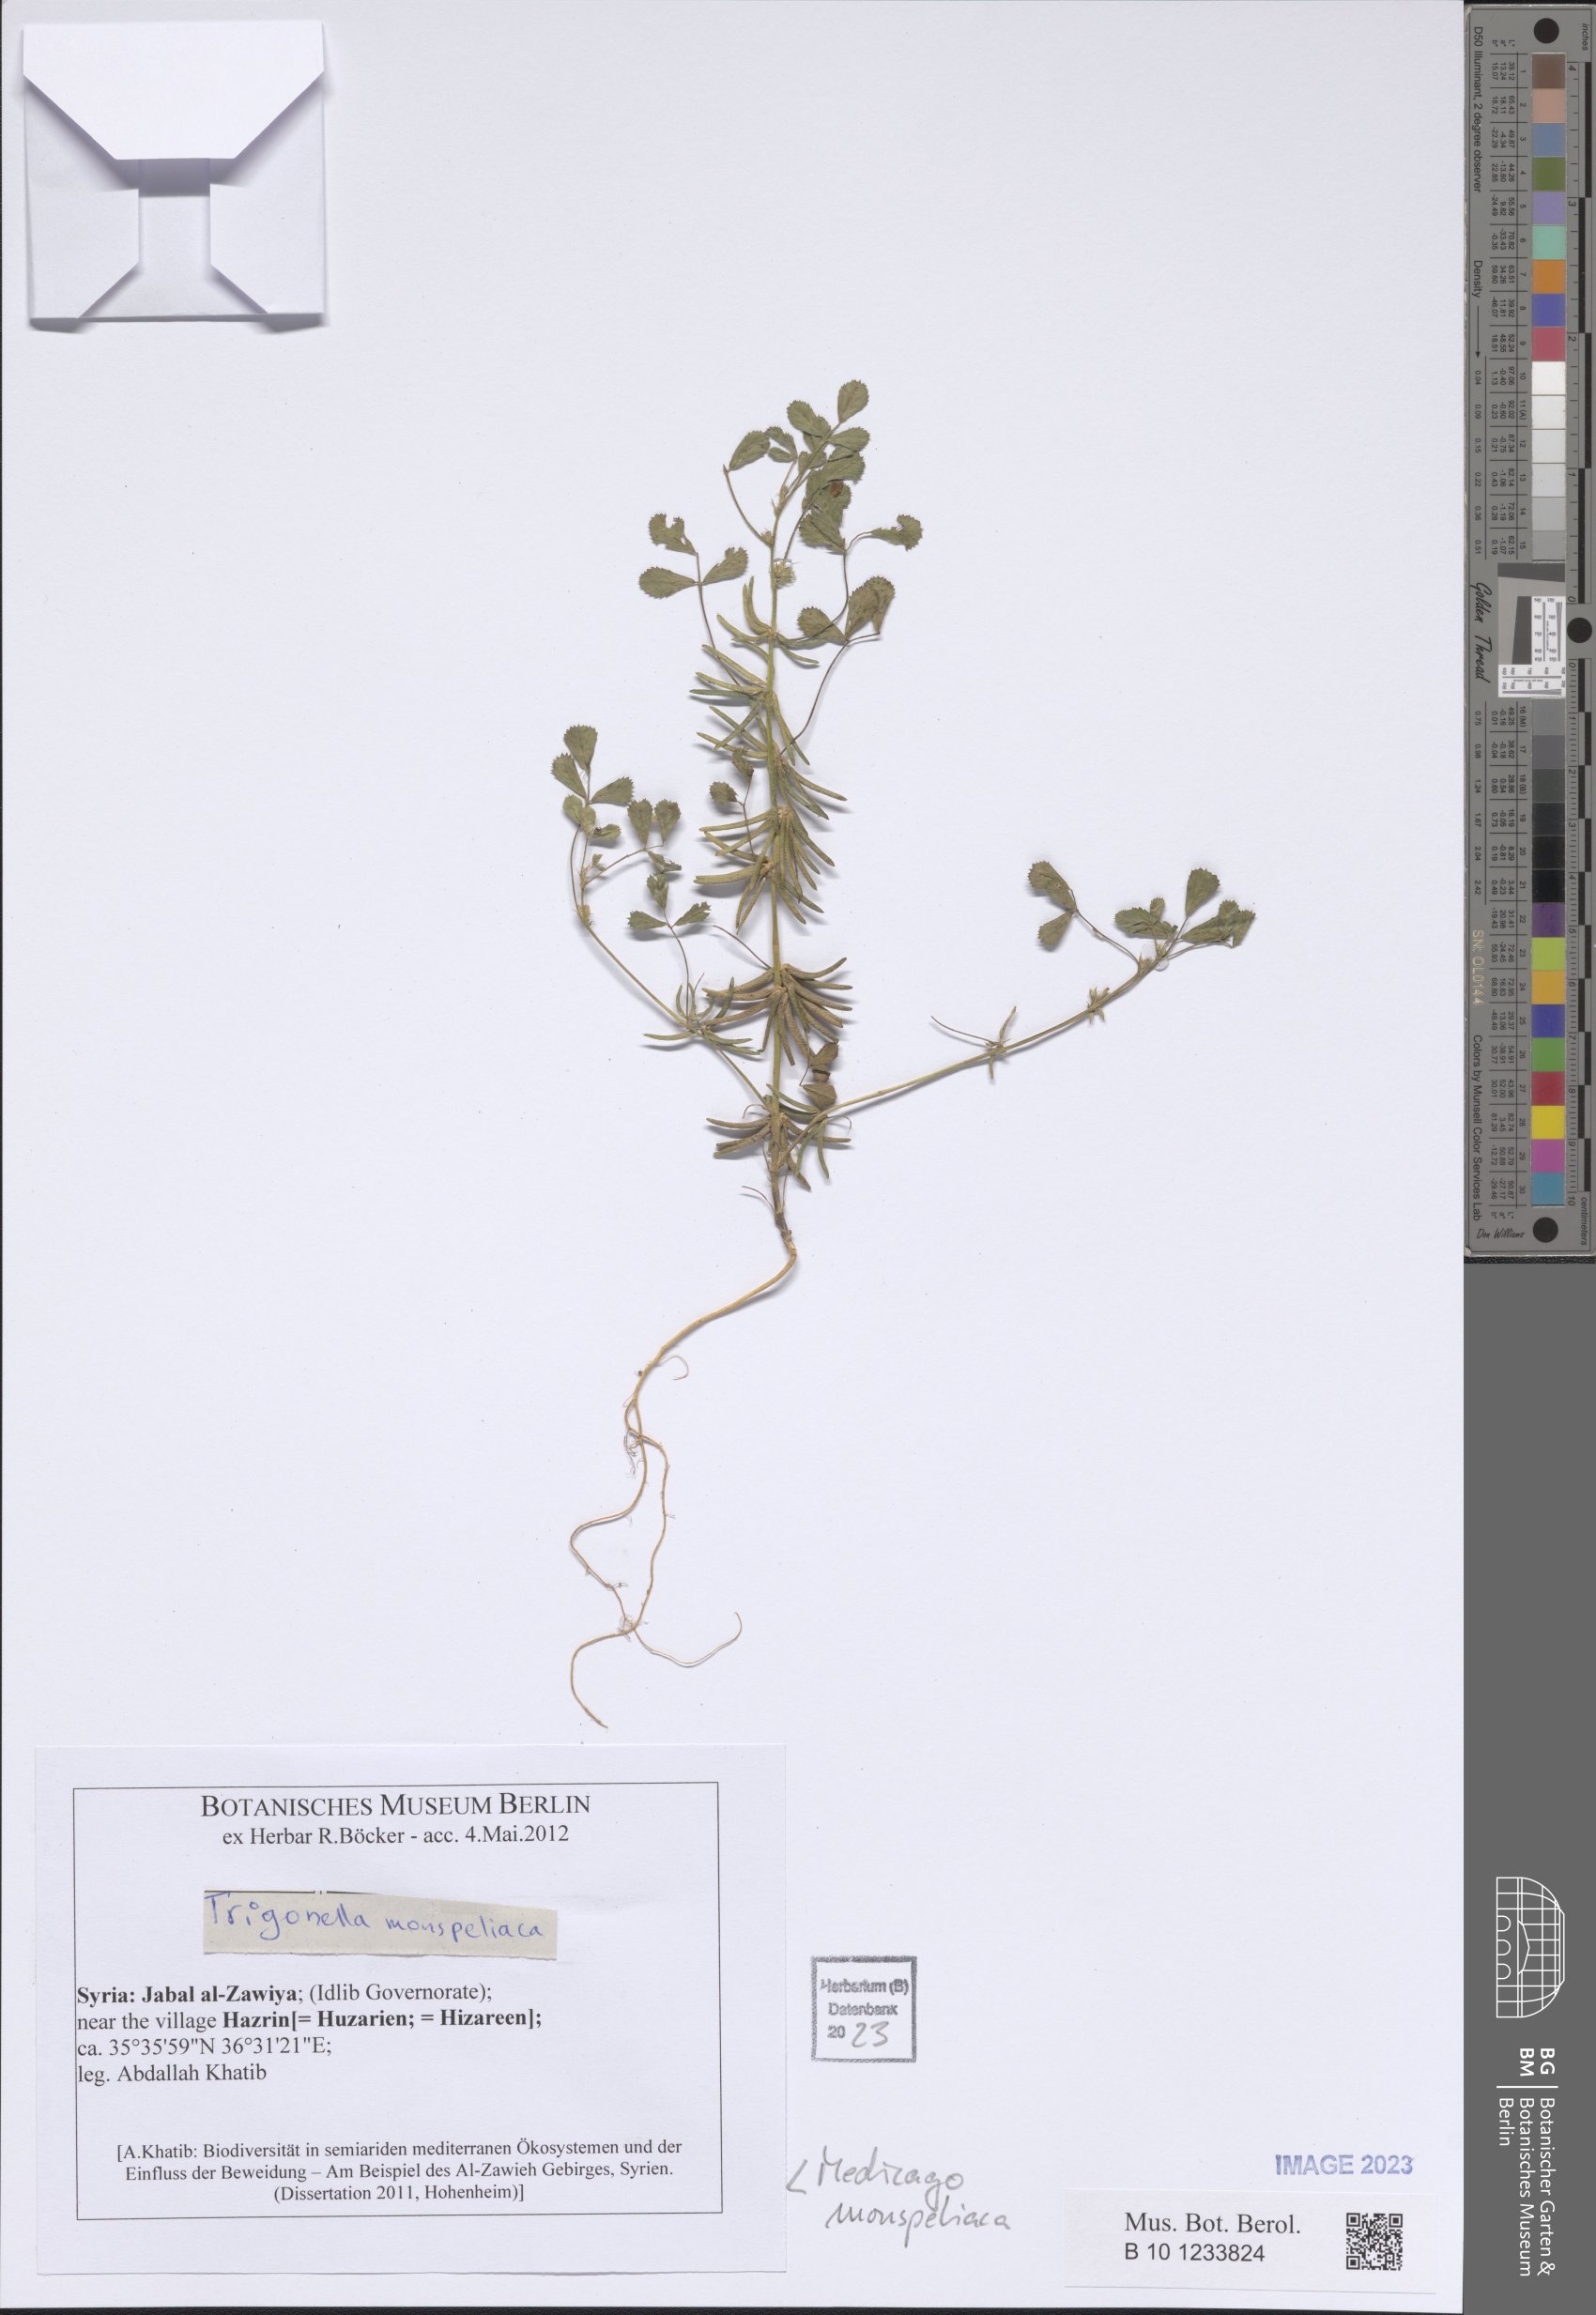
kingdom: Plantae
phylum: Tracheophyta
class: Magnoliopsida
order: Fabales
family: Fabaceae
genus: Medicago
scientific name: Medicago monspeliaca
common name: Hairy medick
